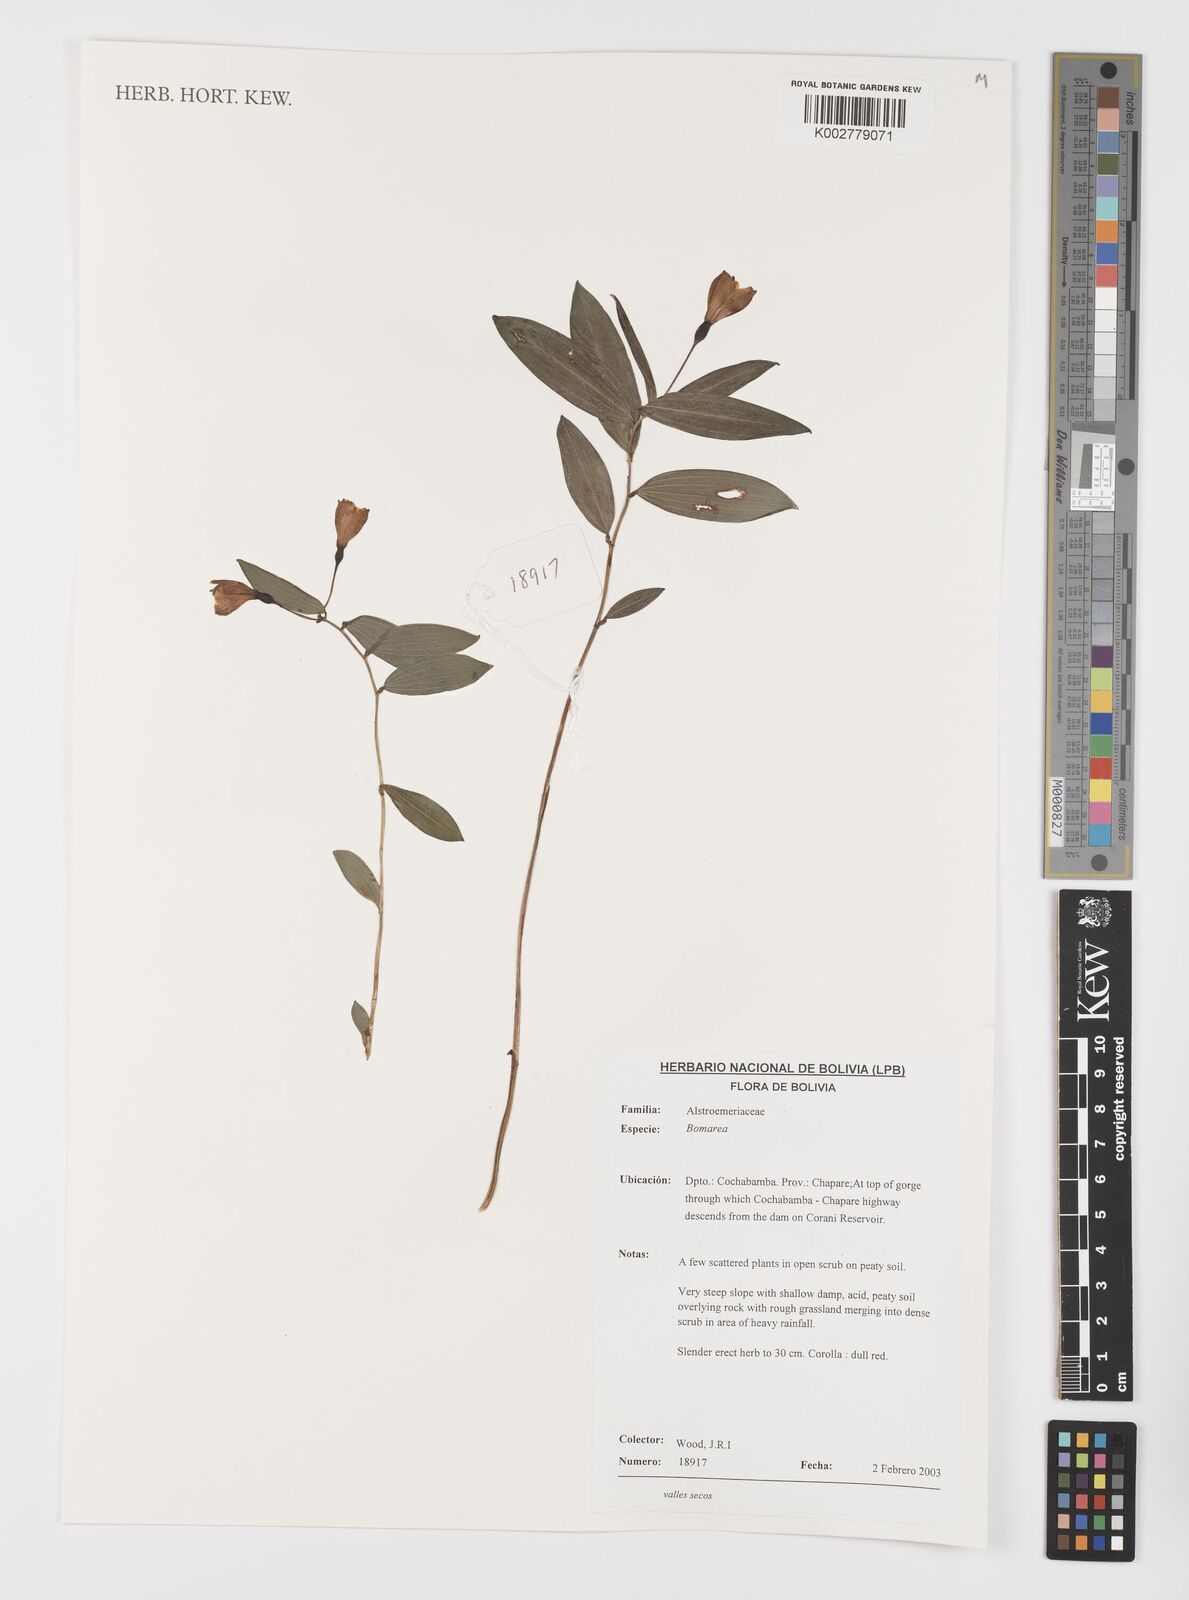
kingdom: Plantae
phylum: Tracheophyta
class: Liliopsida
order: Liliales
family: Alstroemeriaceae
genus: Bomarea
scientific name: Bomarea
